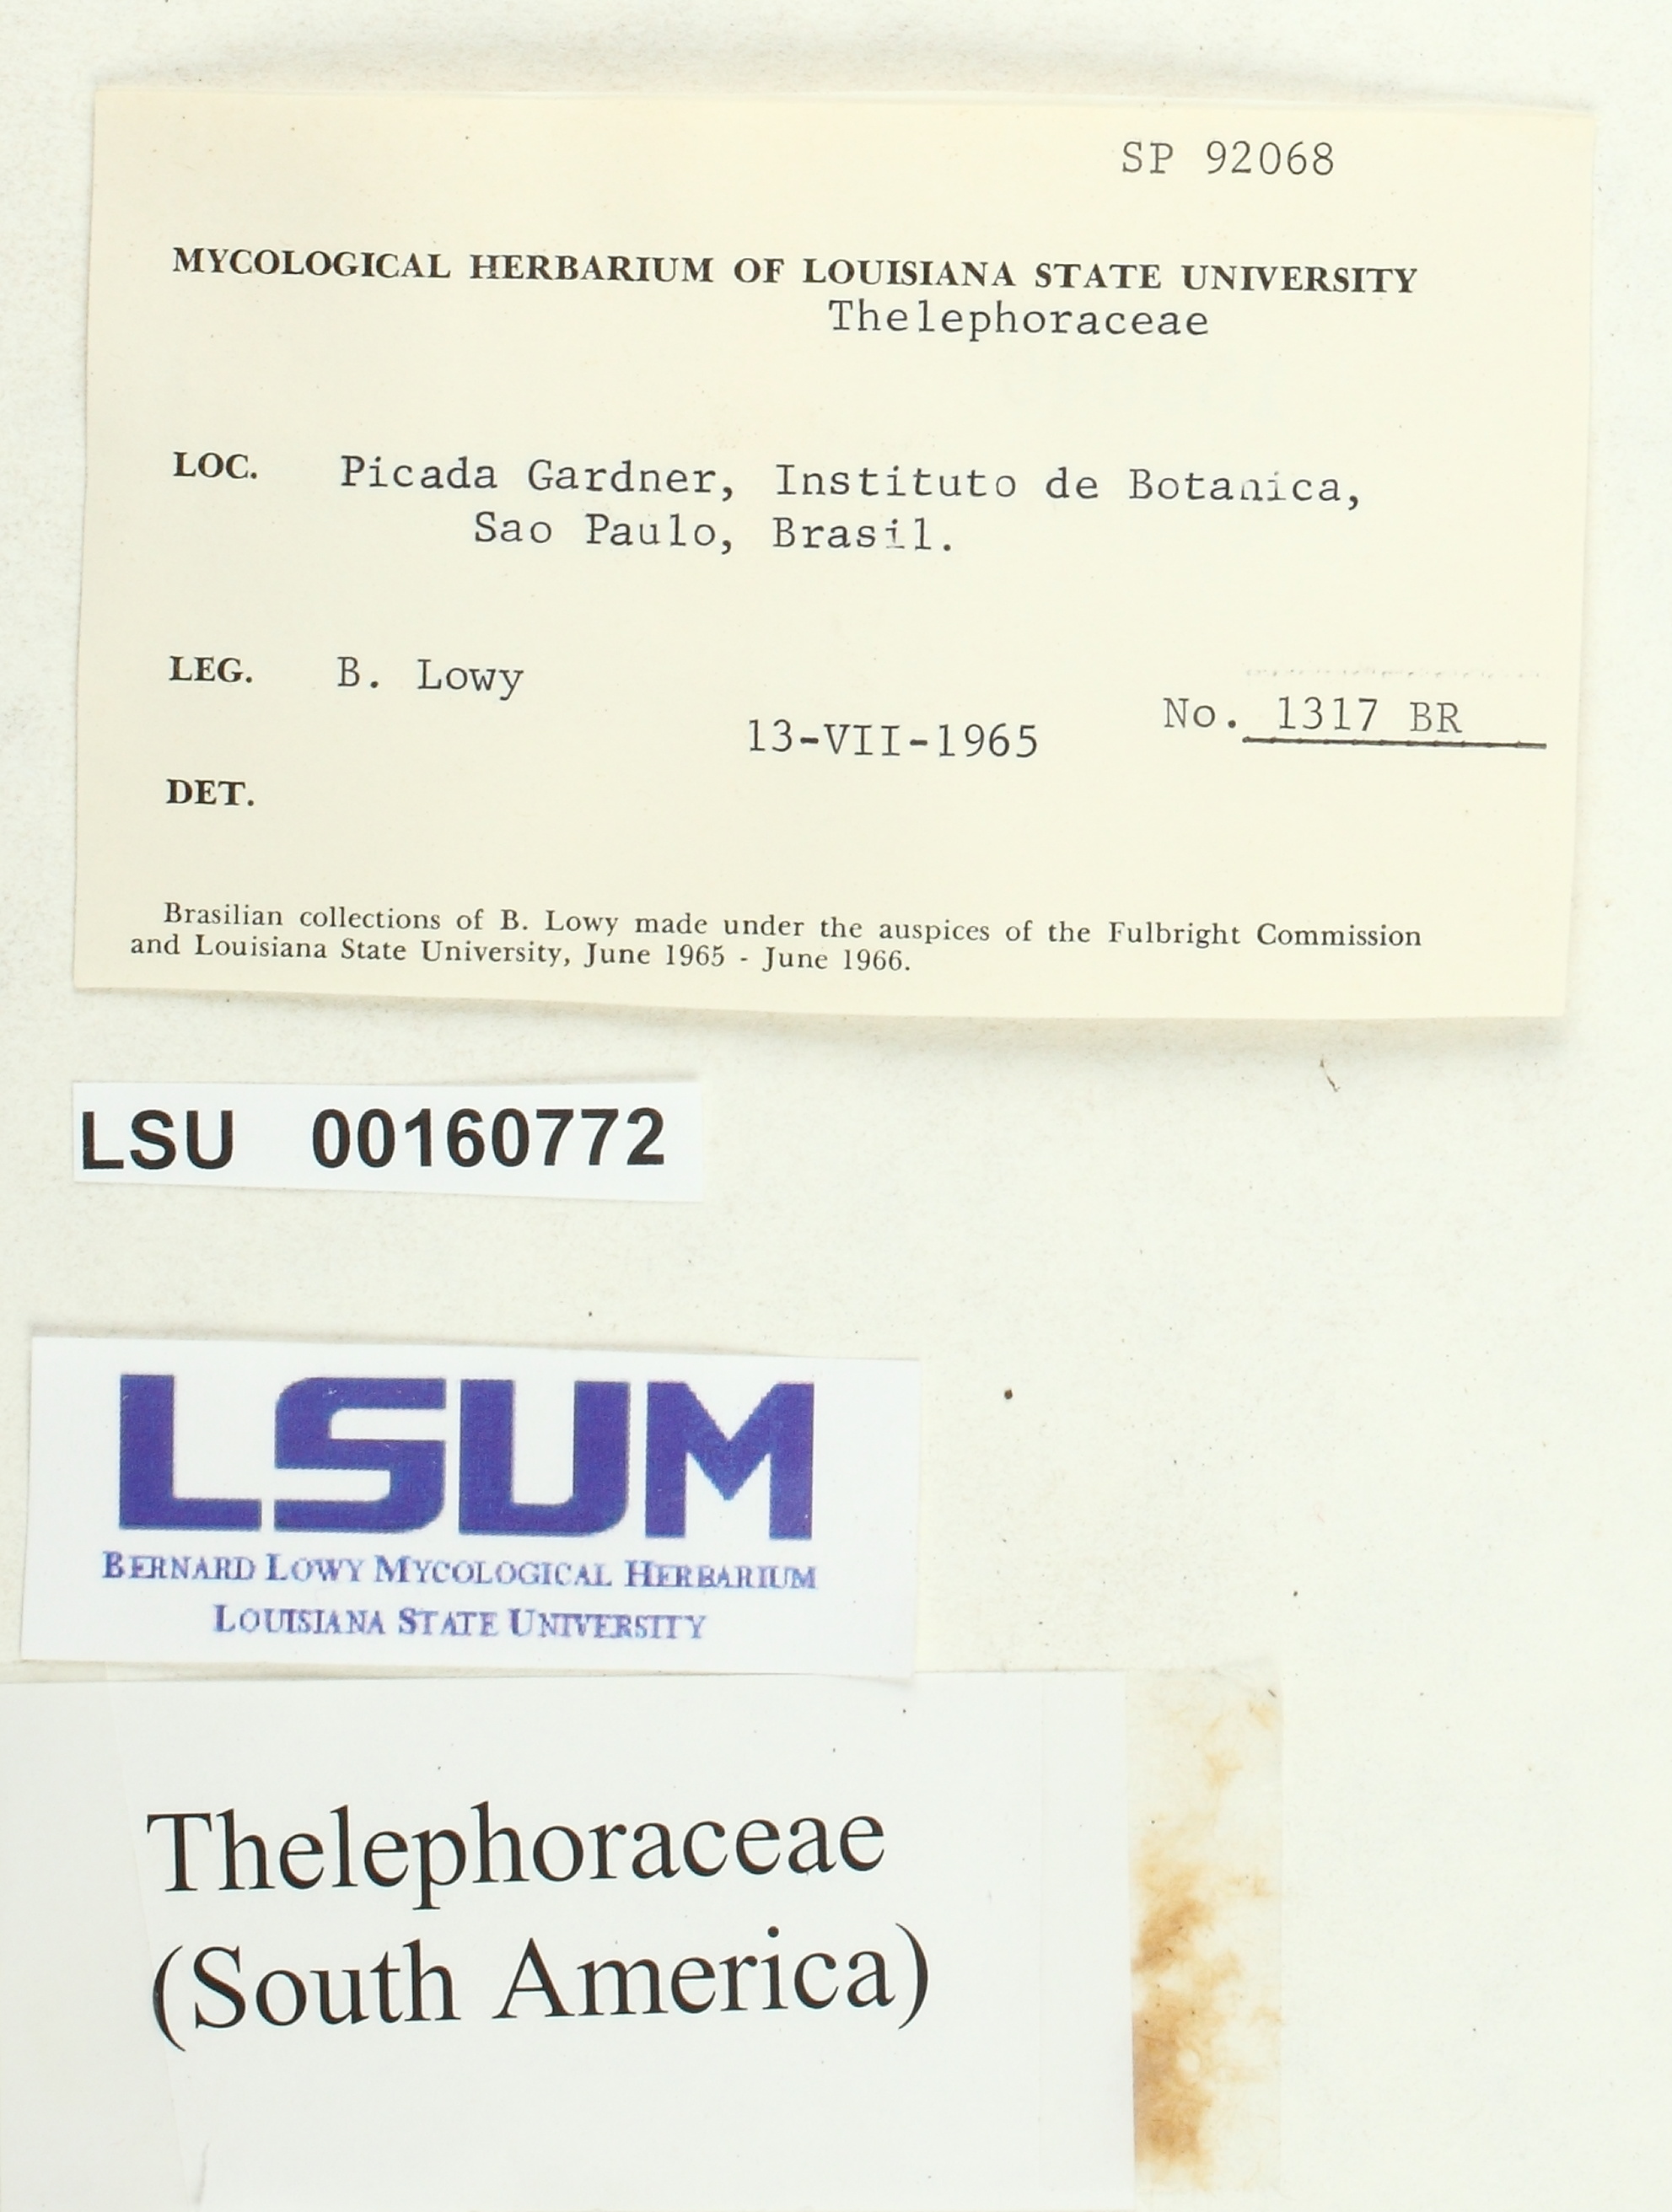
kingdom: Fungi
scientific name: Fungi
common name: Fungi
